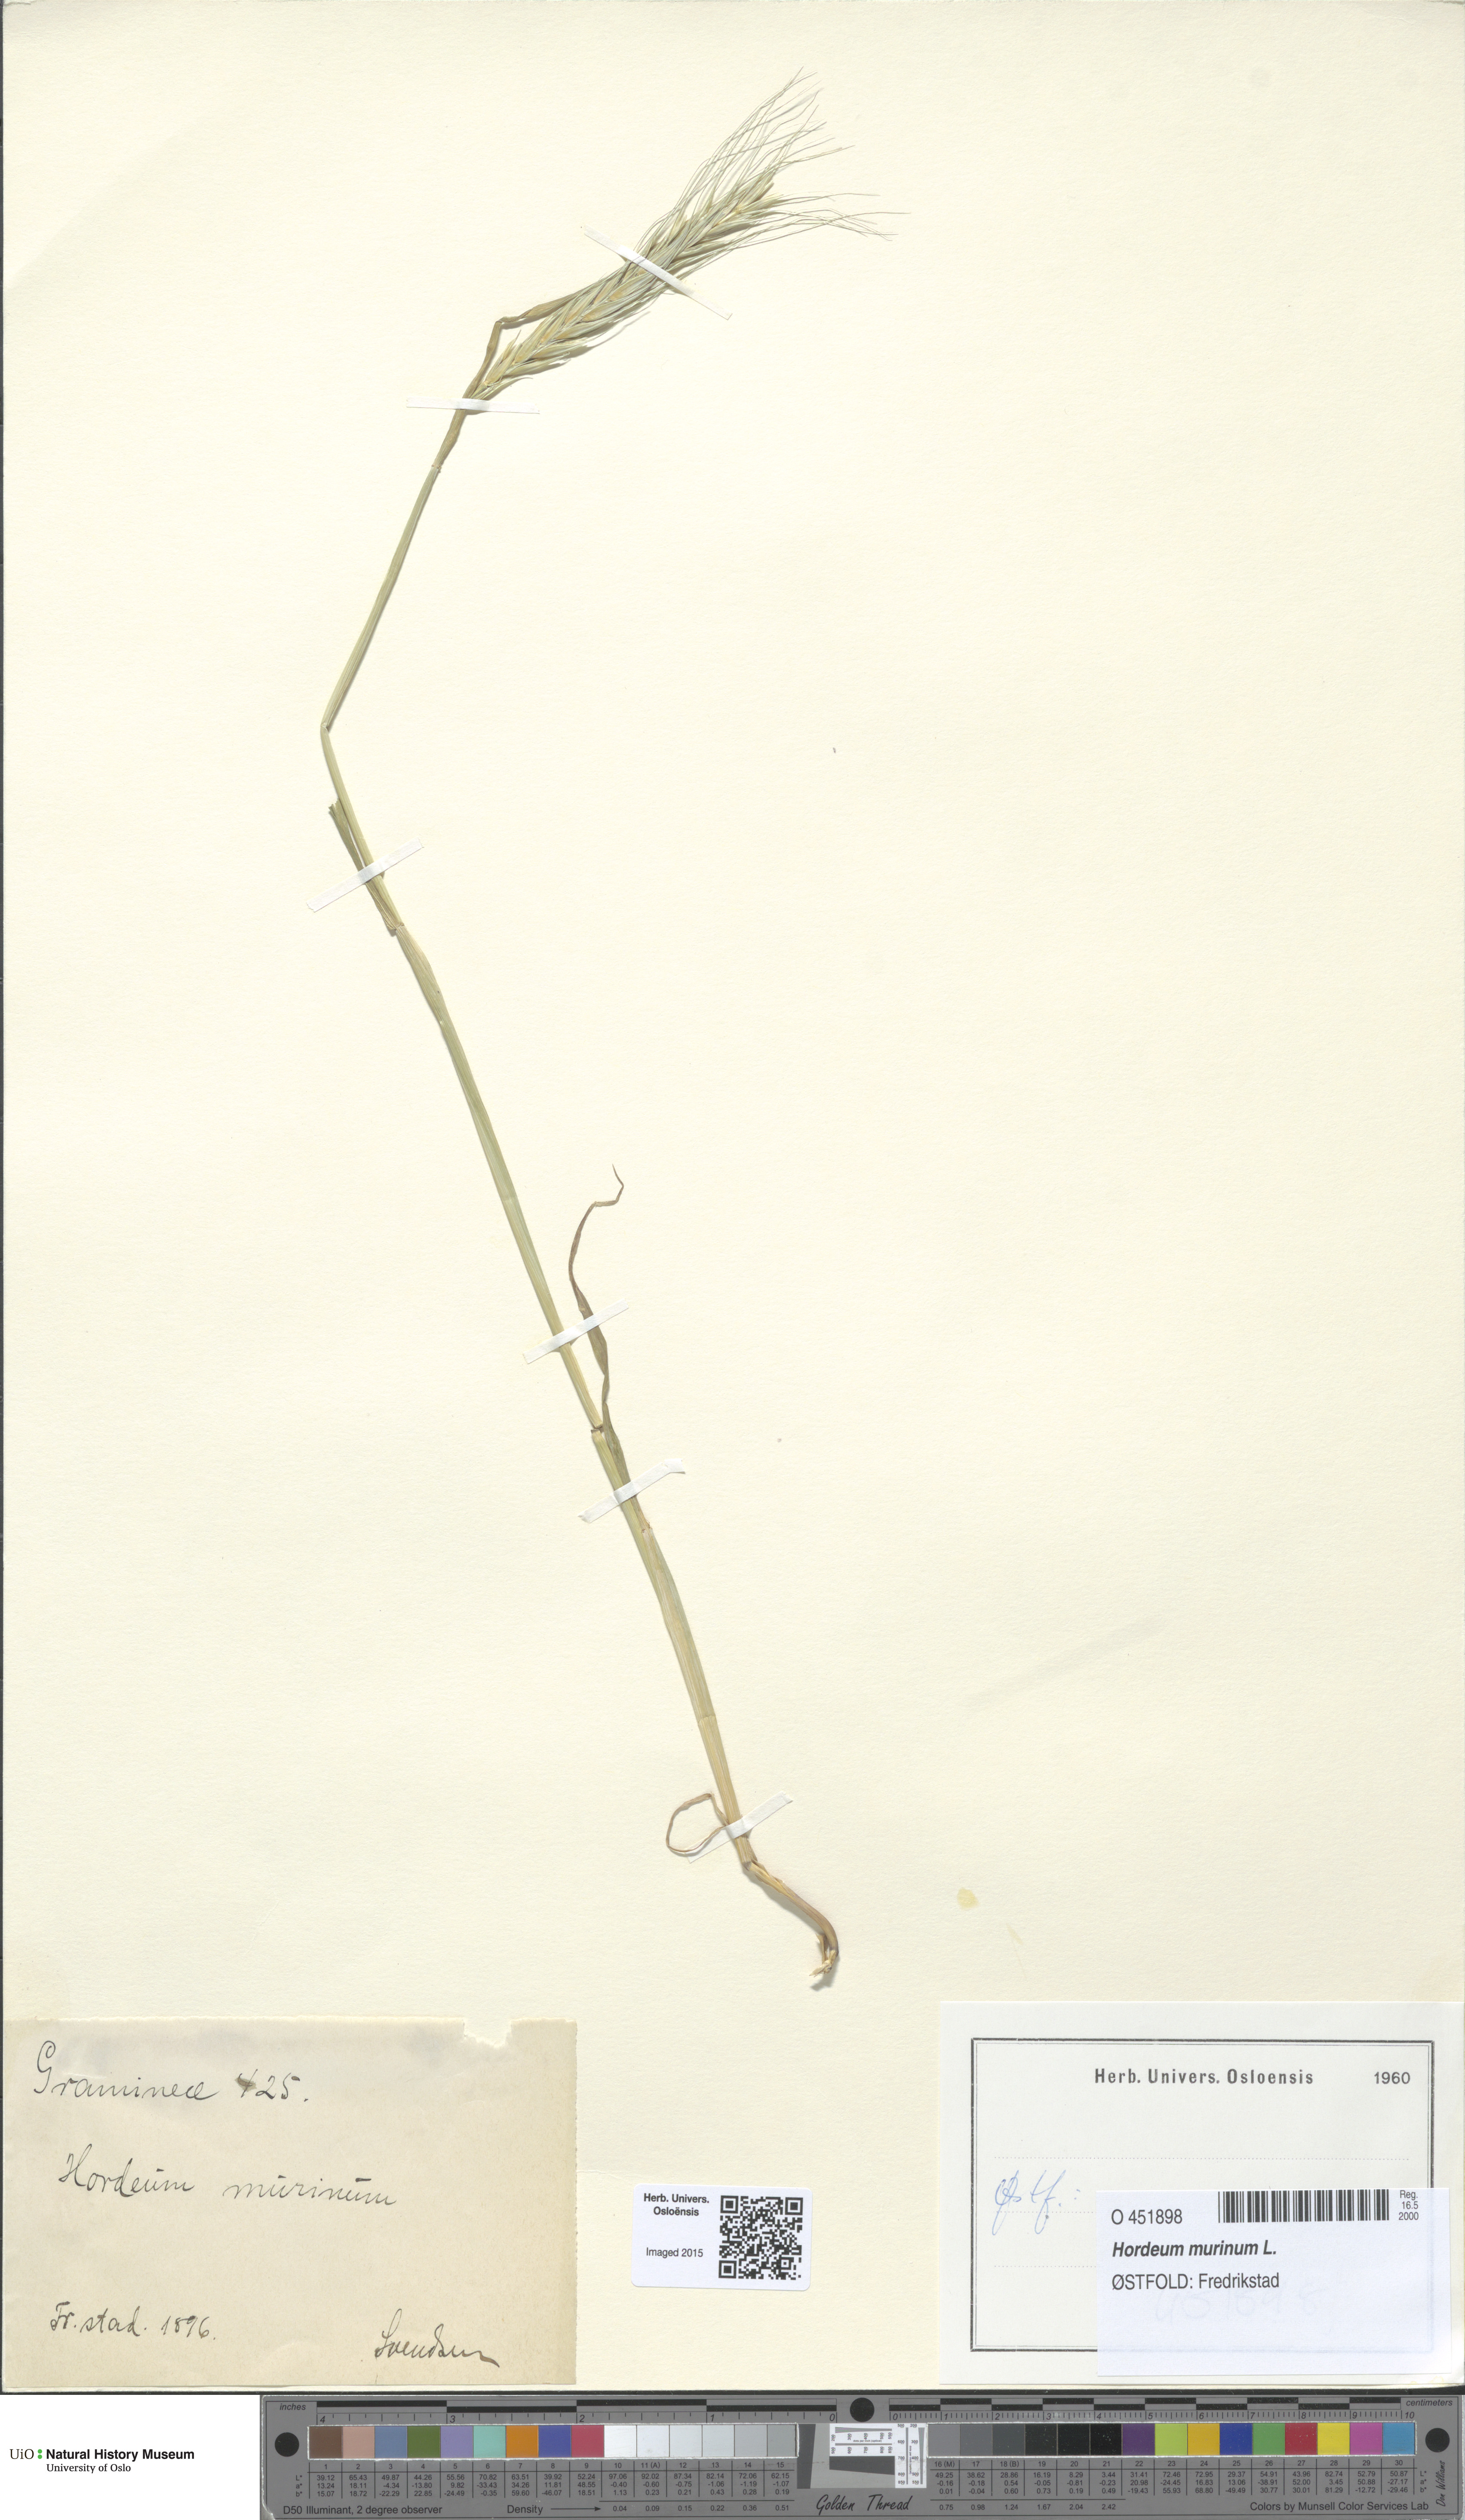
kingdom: Plantae
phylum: Tracheophyta
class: Liliopsida
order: Poales
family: Poaceae
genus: Hordeum
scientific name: Hordeum murinum
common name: Wall barley
